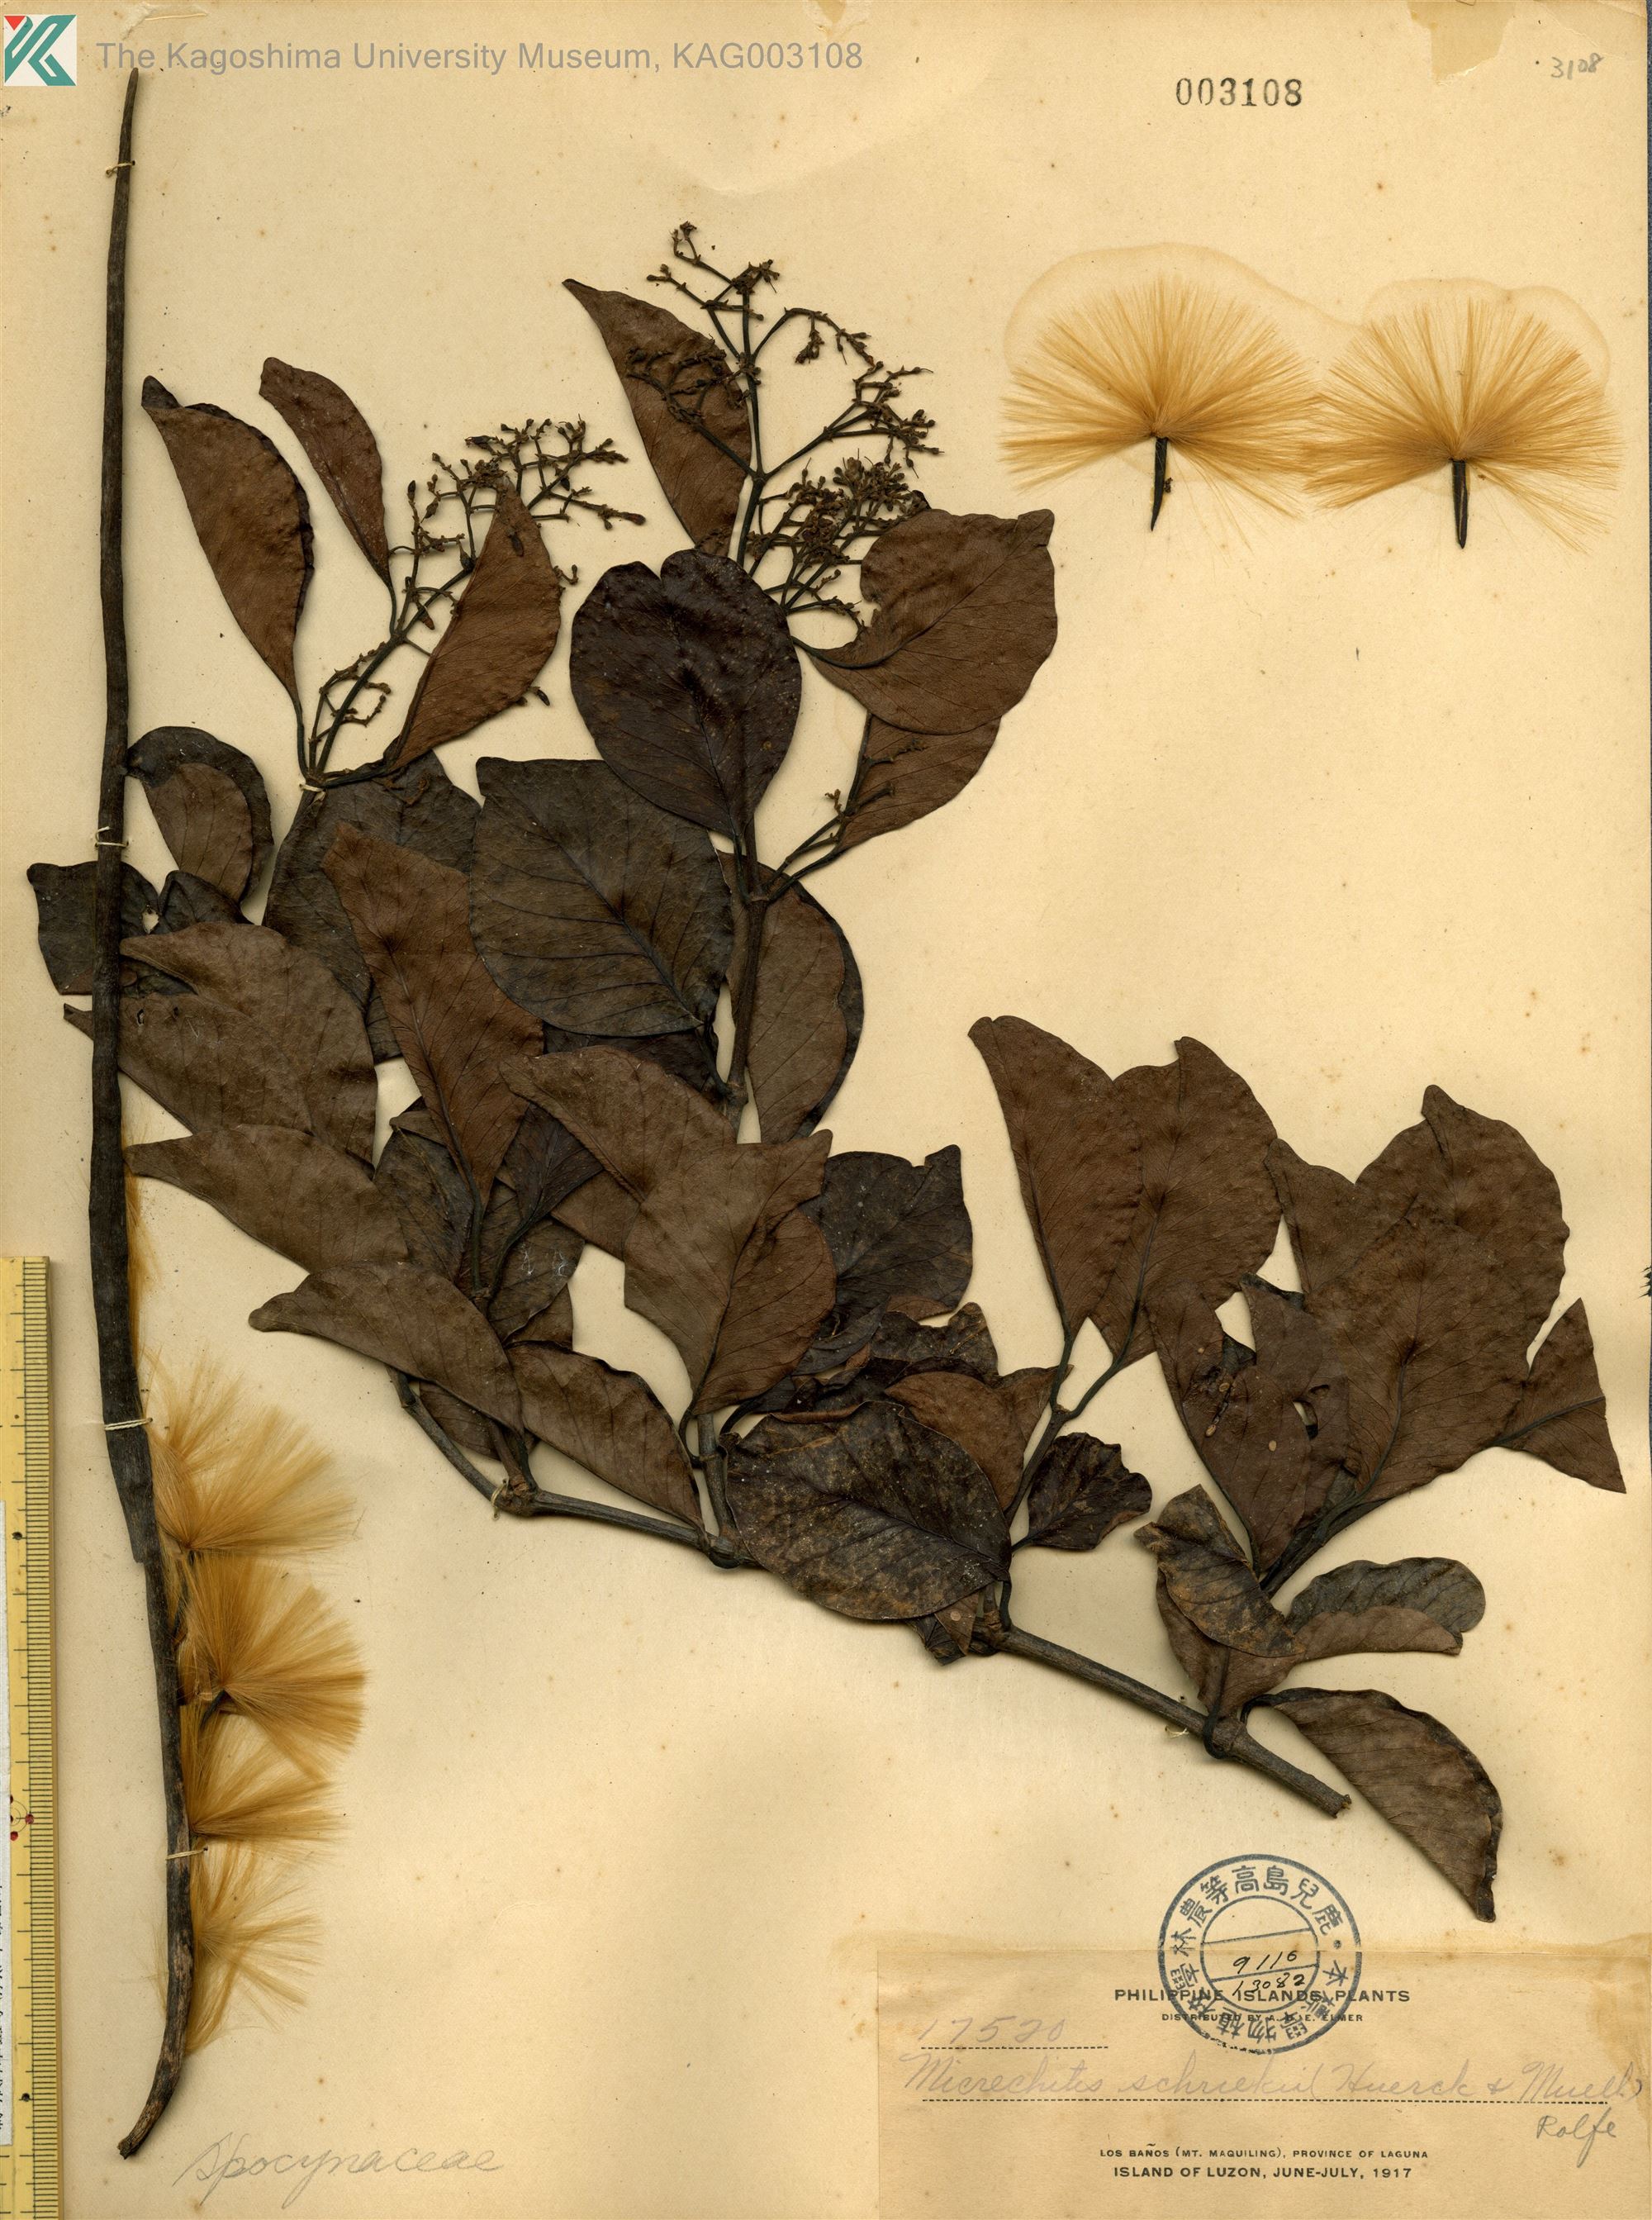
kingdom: Plantae
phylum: Tracheophyta
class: Magnoliopsida
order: Gentianales
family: Apocynaceae
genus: Micrechites
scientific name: Micrechites serpyllifolia
